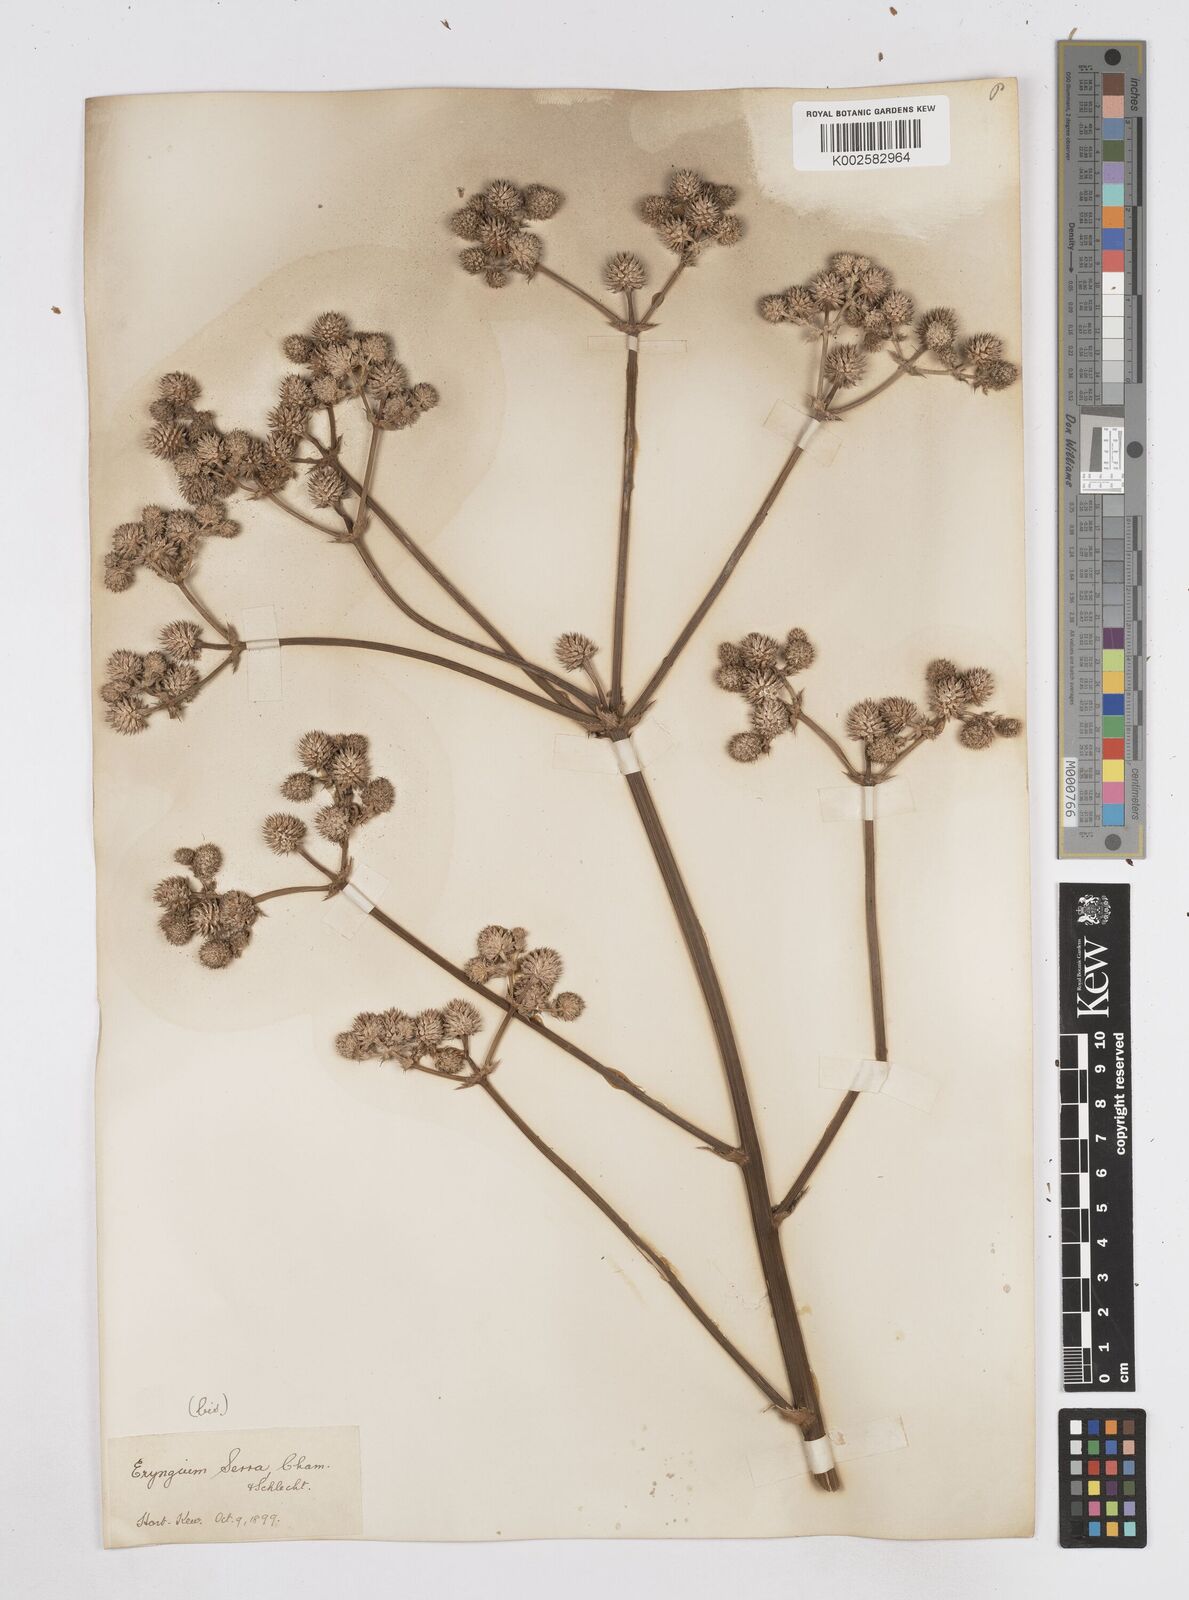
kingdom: Plantae
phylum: Tracheophyta
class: Magnoliopsida
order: Apiales
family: Apiaceae
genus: Eryngium
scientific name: Eryngium serra
